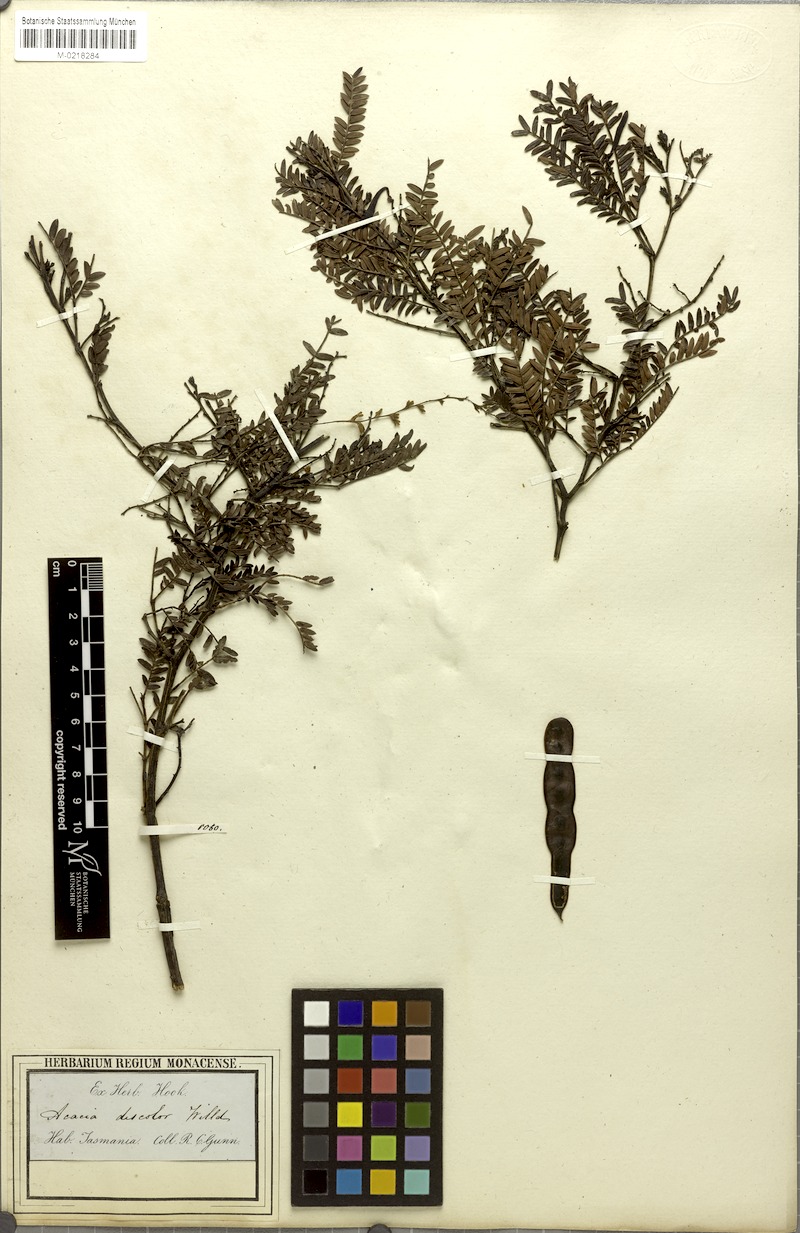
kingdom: Plantae
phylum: Tracheophyta
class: Magnoliopsida
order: Fabales
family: Fabaceae
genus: Acacia
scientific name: Acacia terminalis
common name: Cedar wattle
